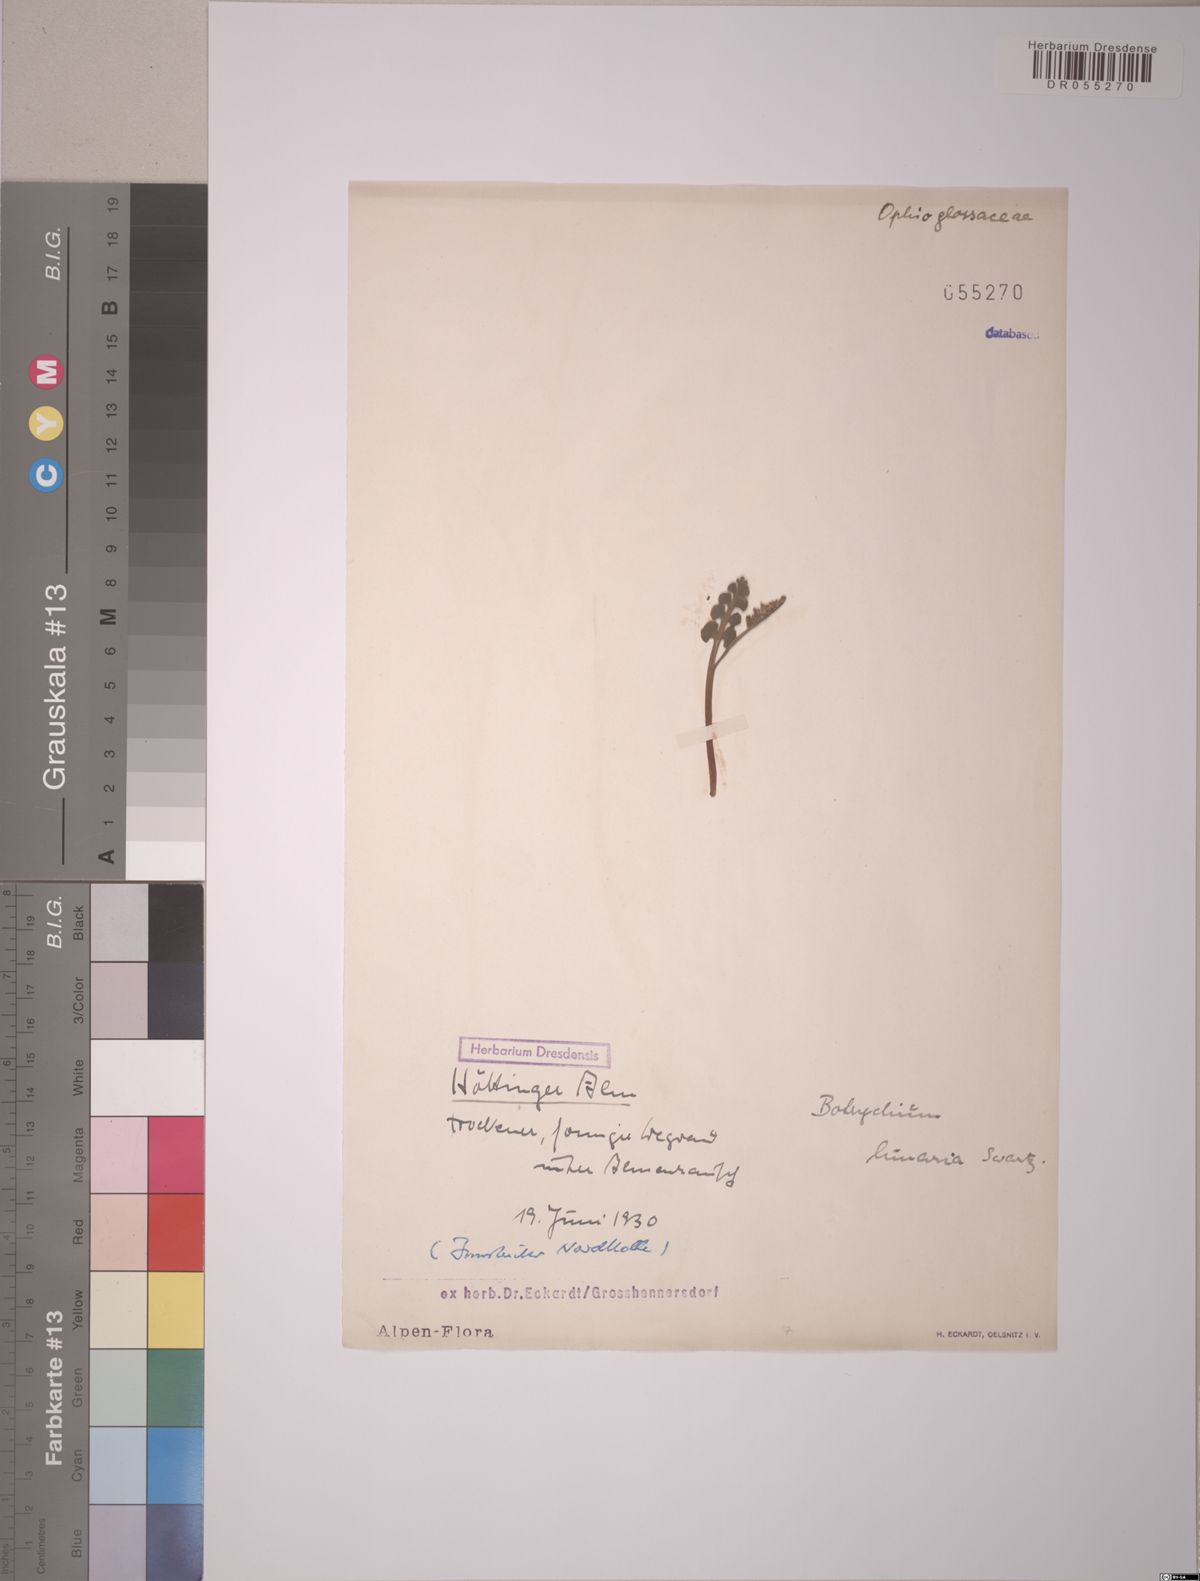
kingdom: Plantae
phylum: Tracheophyta
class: Polypodiopsida
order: Ophioglossales
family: Ophioglossaceae
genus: Botrychium
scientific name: Botrychium lunaria
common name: Moonwort
